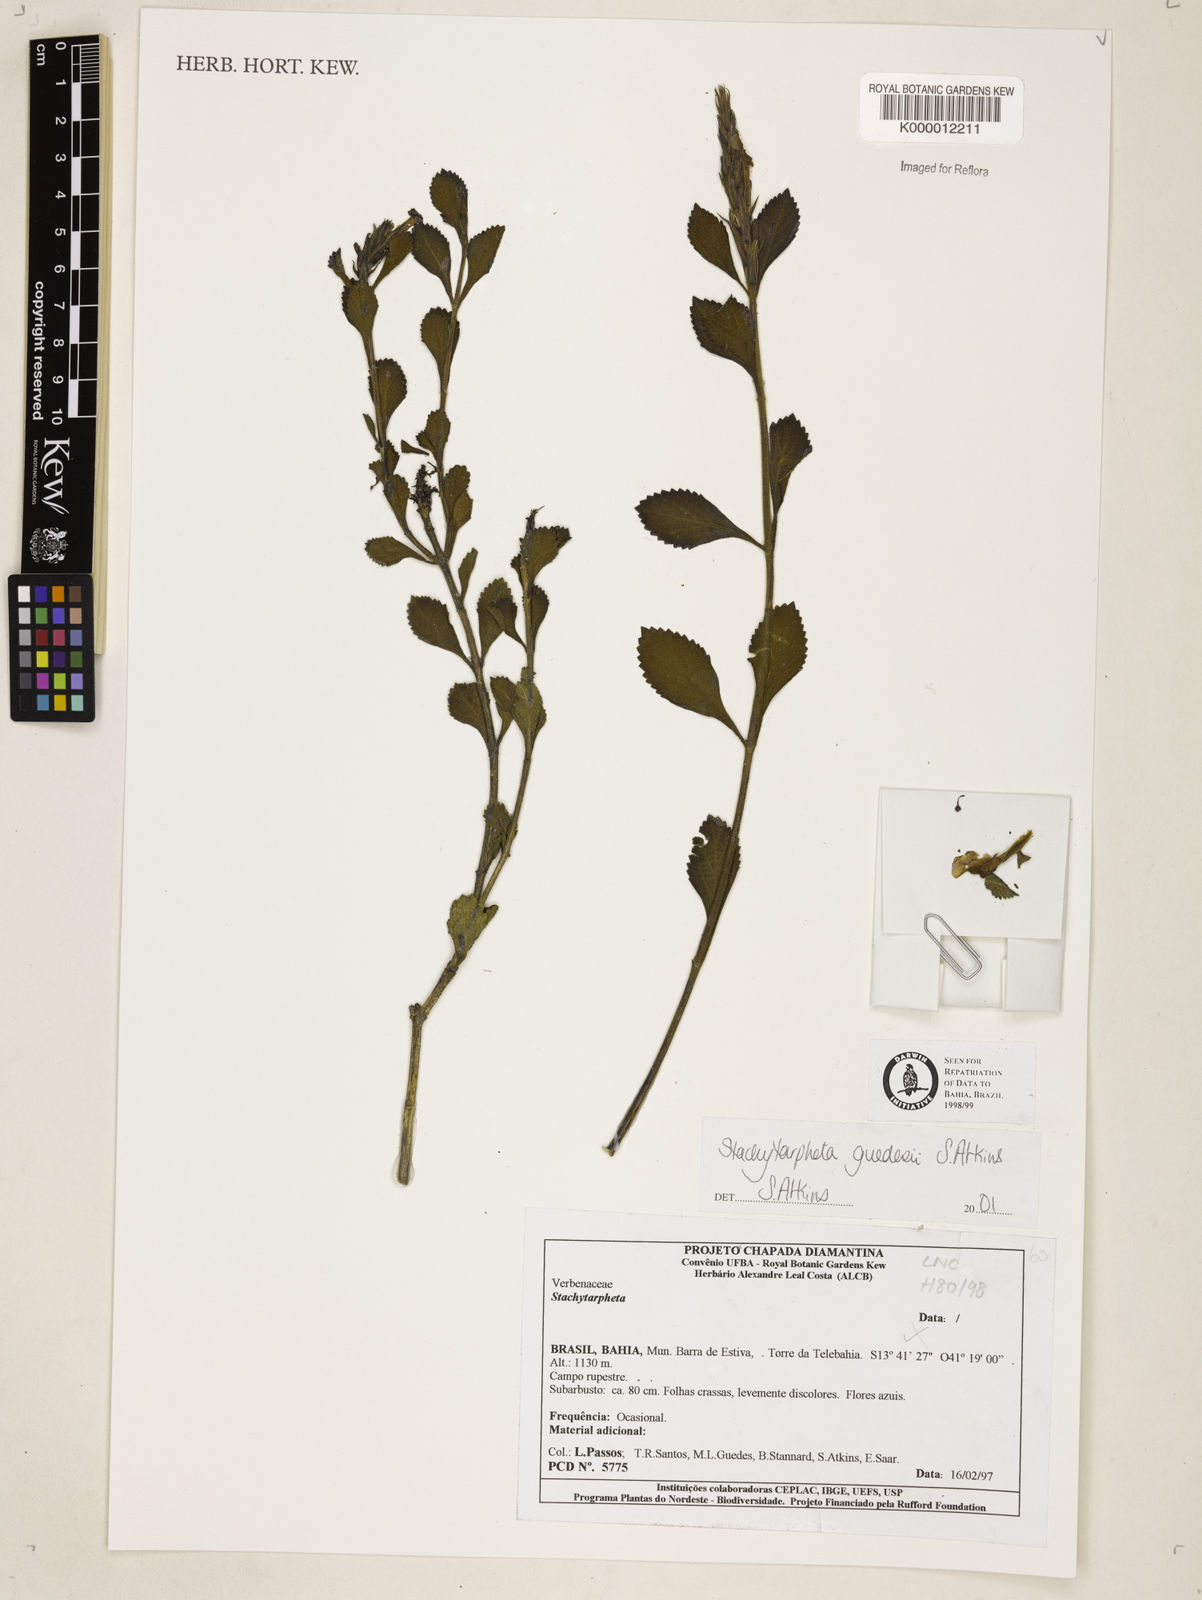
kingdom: Plantae
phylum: Tracheophyta
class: Magnoliopsida
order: Lamiales
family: Verbenaceae
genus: Stachytarpheta
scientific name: Stachytarpheta guedesii
